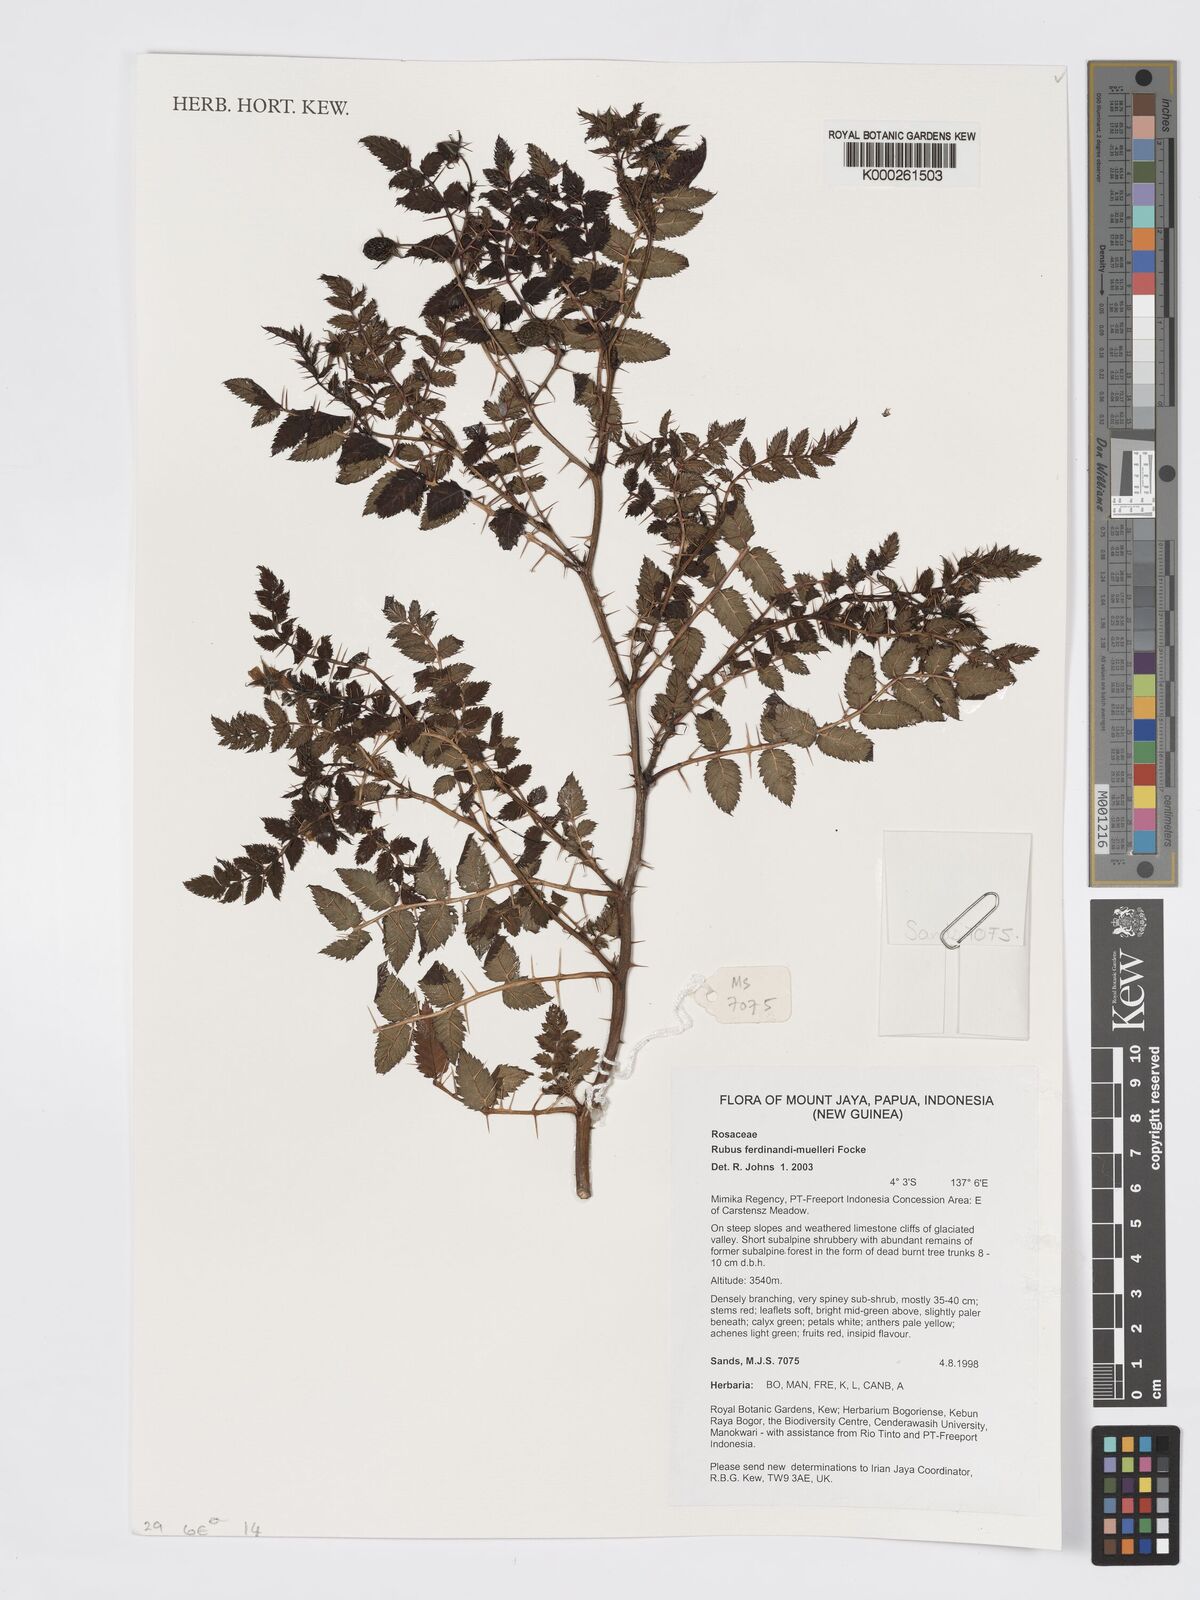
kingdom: Plantae
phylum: Tracheophyta
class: Magnoliopsida
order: Rosales
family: Rosaceae
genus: Rubus
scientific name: Rubus ferdinandimuelleri
